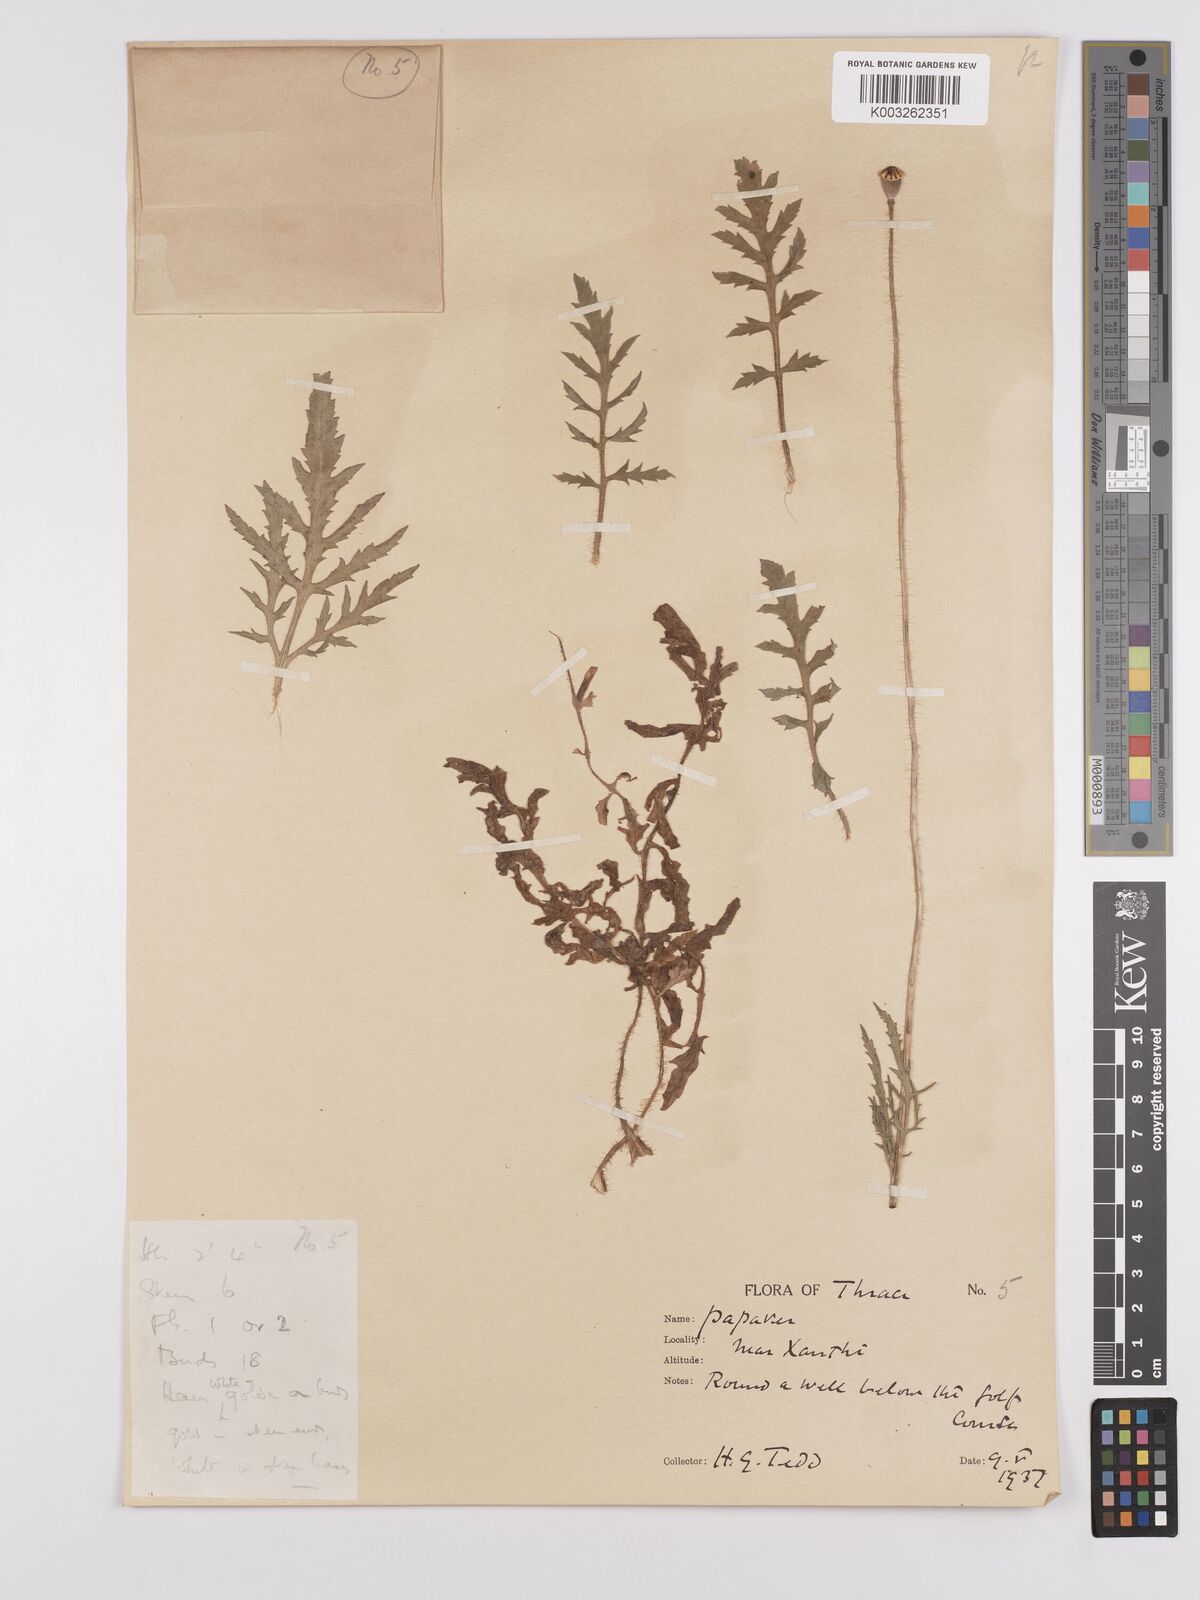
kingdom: Plantae
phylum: Tracheophyta
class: Magnoliopsida
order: Ranunculales
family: Papaveraceae
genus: Papaver
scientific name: Papaver rhoeas
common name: Corn poppy
